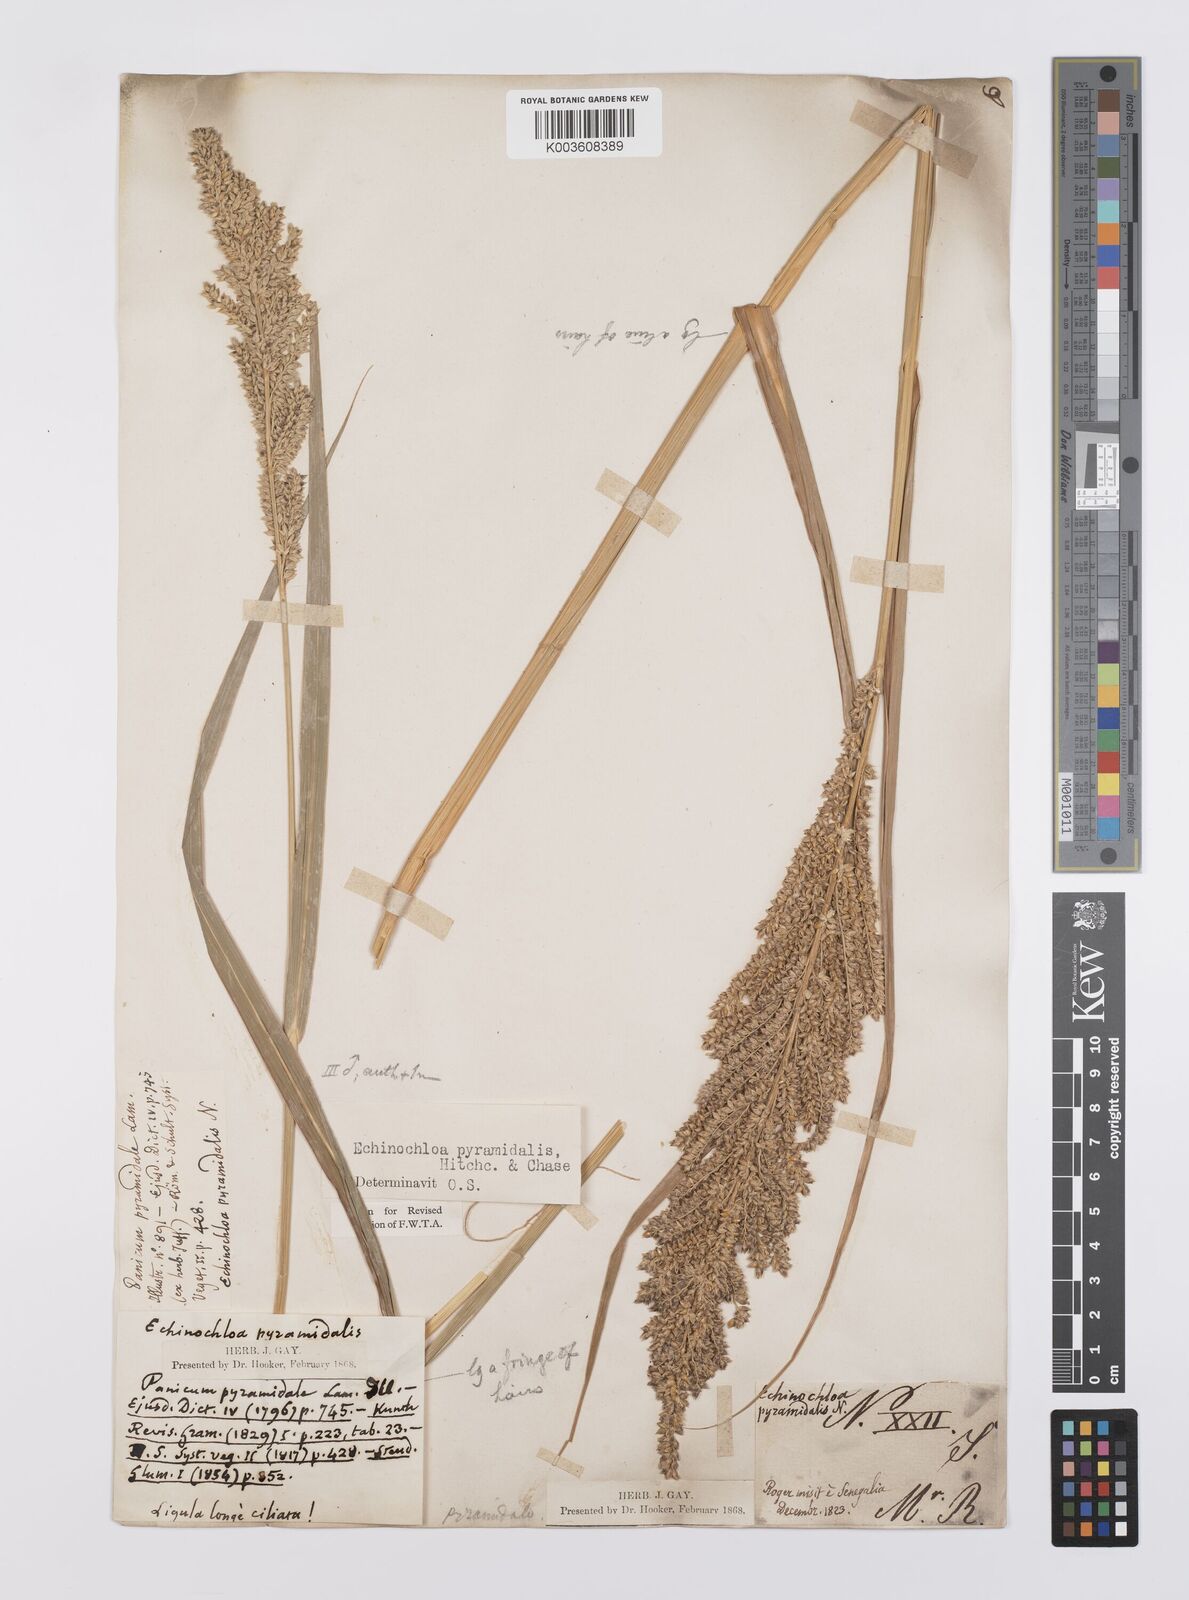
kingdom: Plantae
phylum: Tracheophyta
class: Liliopsida
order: Poales
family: Poaceae
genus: Echinochloa
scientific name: Echinochloa pyramidalis
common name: Antelope grass
